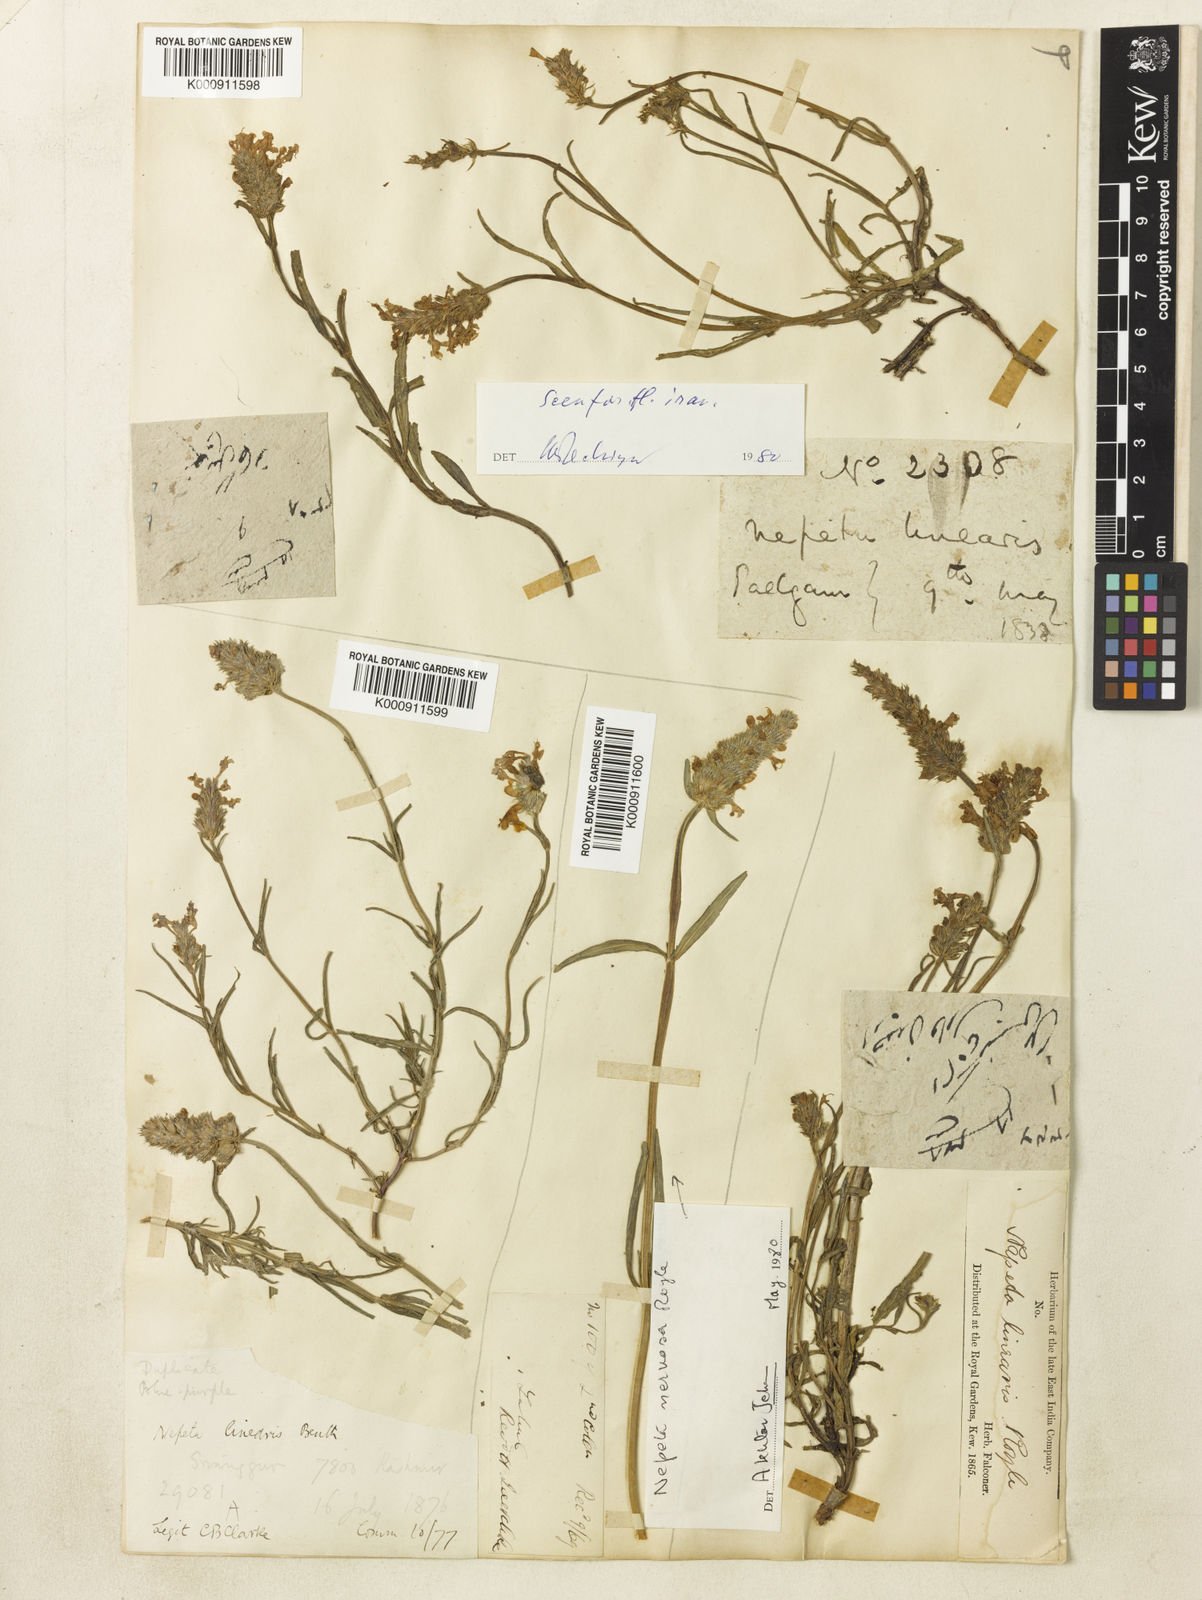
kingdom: Plantae
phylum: Tracheophyta
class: Magnoliopsida
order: Lamiales
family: Lamiaceae
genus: Nepeta
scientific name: Nepeta linearis
